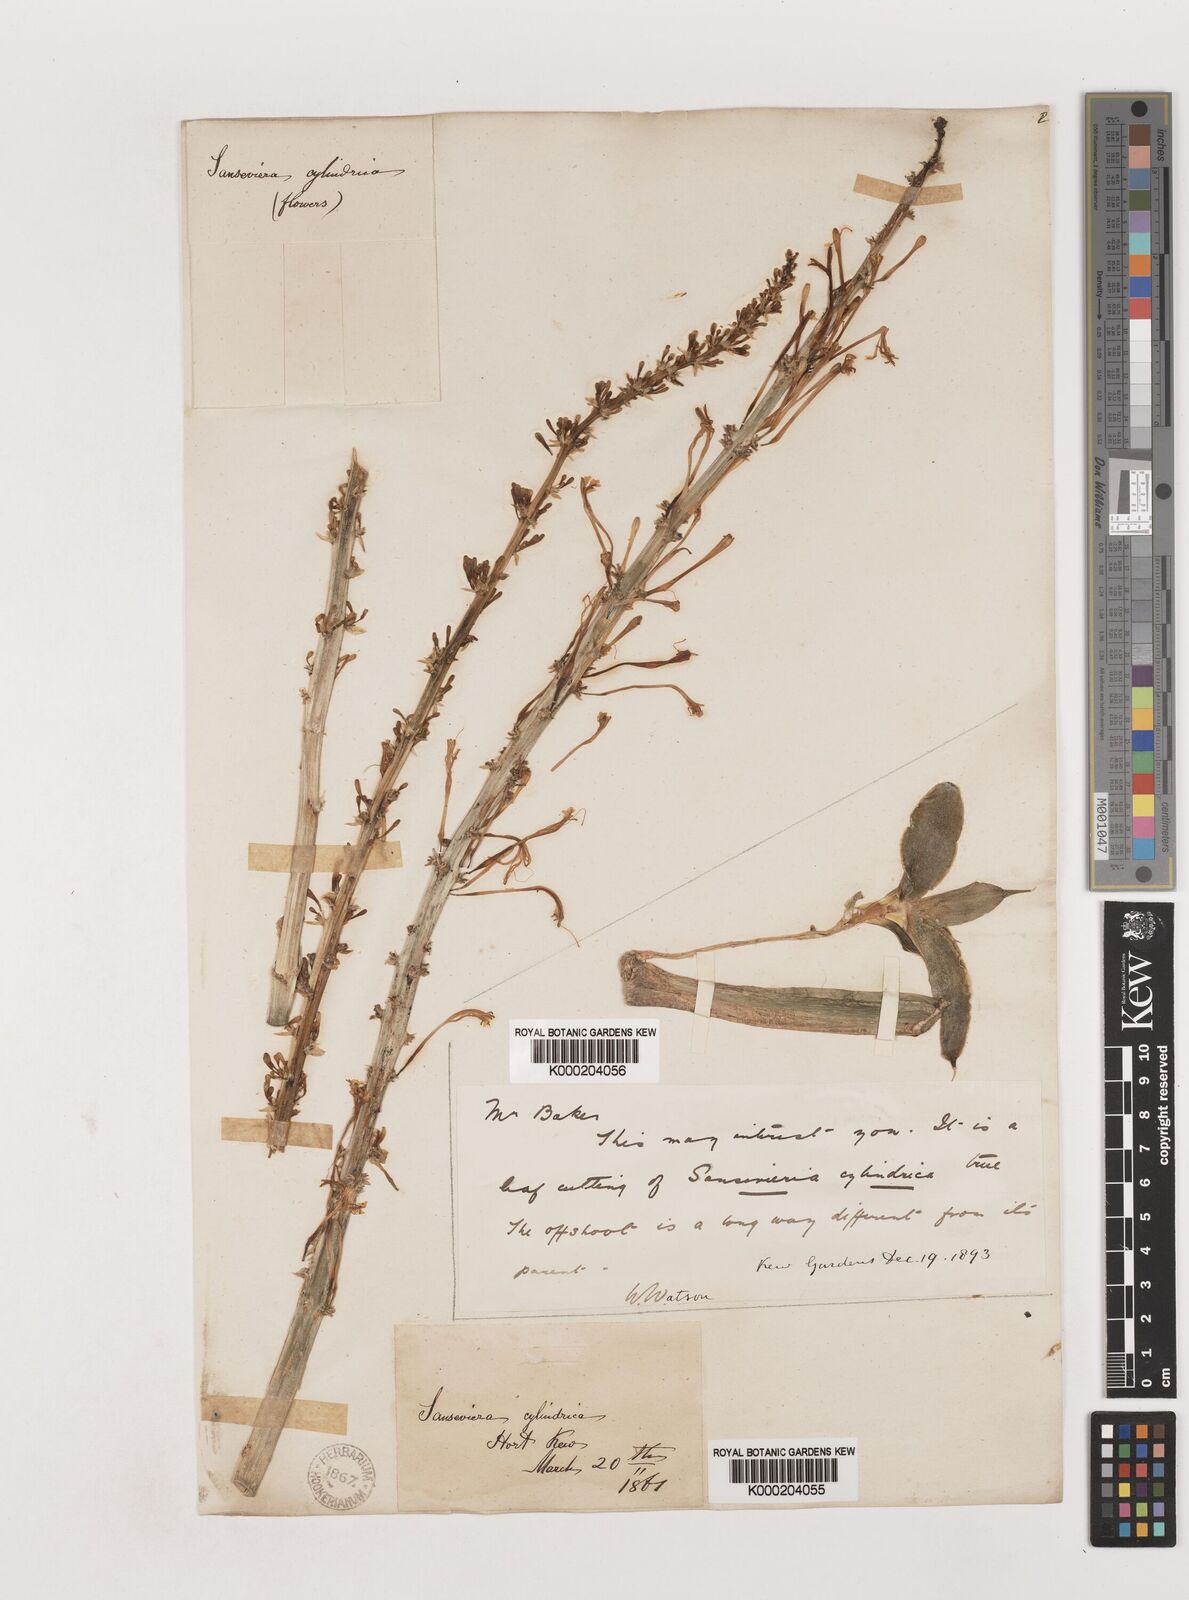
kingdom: Plantae
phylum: Tracheophyta
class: Liliopsida
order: Asparagales
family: Asparagaceae
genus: Dracaena
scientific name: Dracaena angolensis
